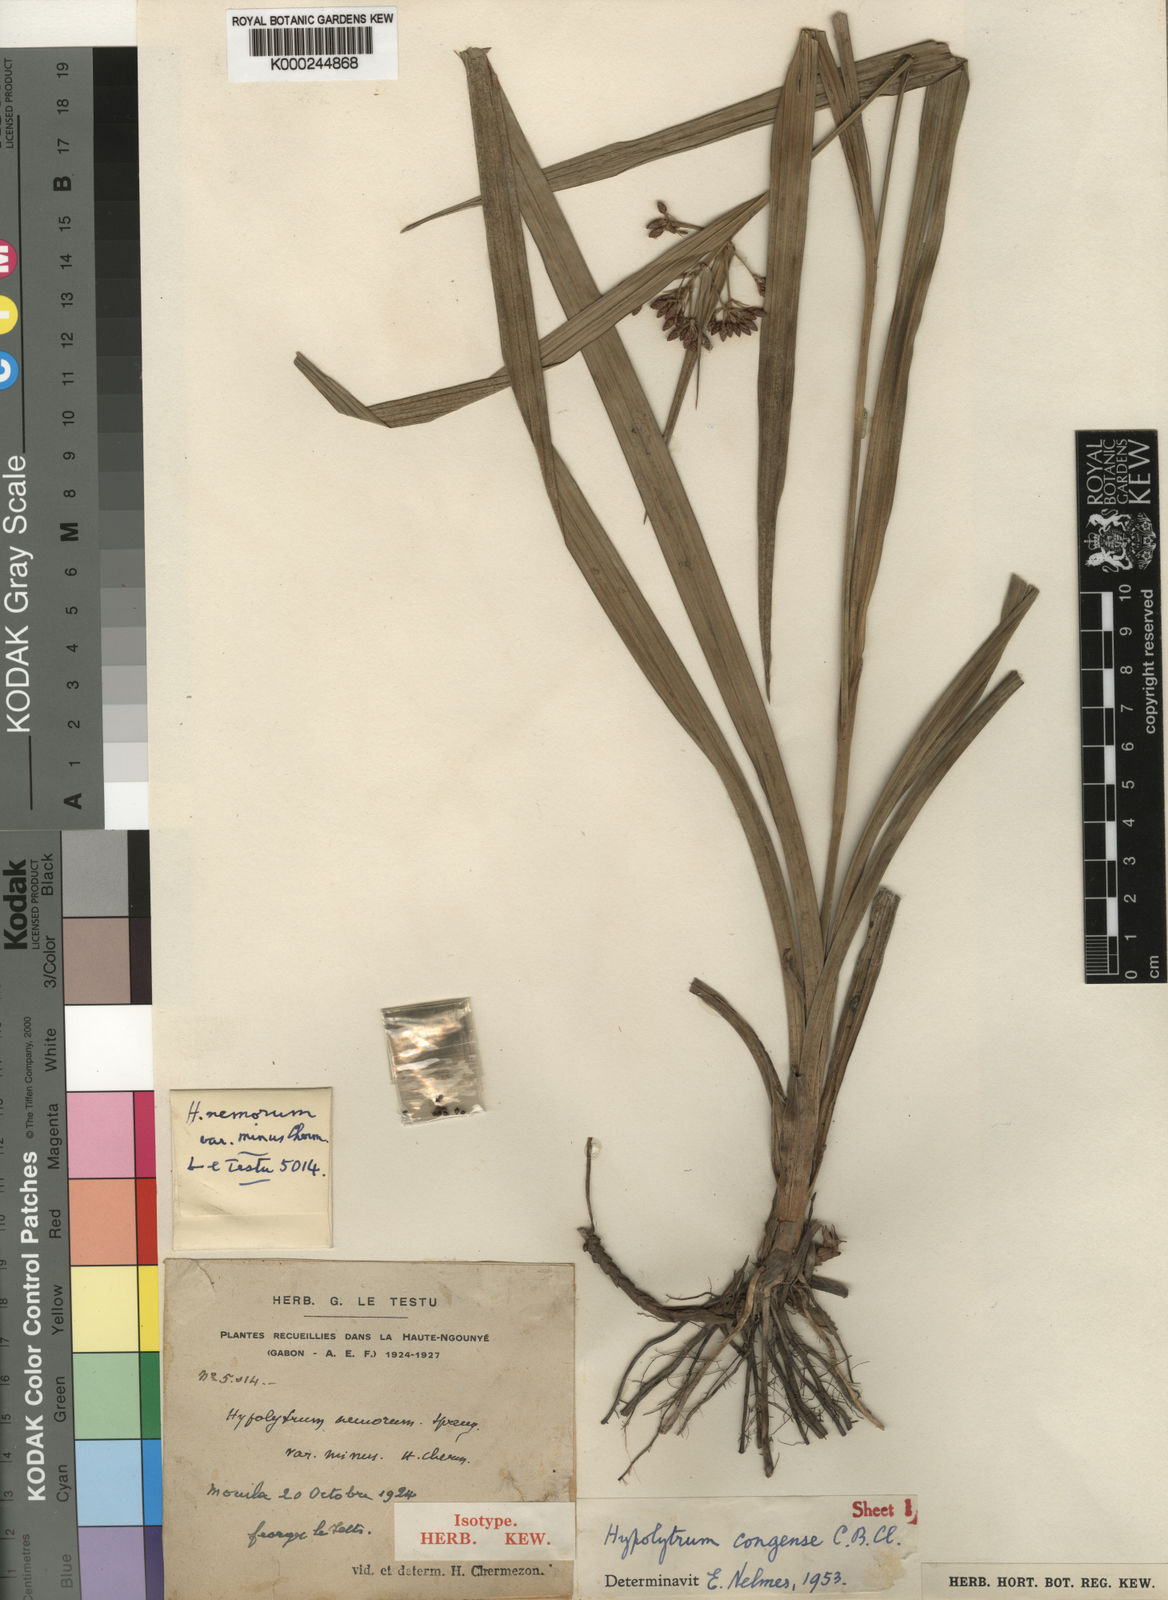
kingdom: Plantae
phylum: Tracheophyta
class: Liliopsida
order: Poales
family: Cyperaceae
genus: Hypolytrum
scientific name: Hypolytrum heterophyllum
